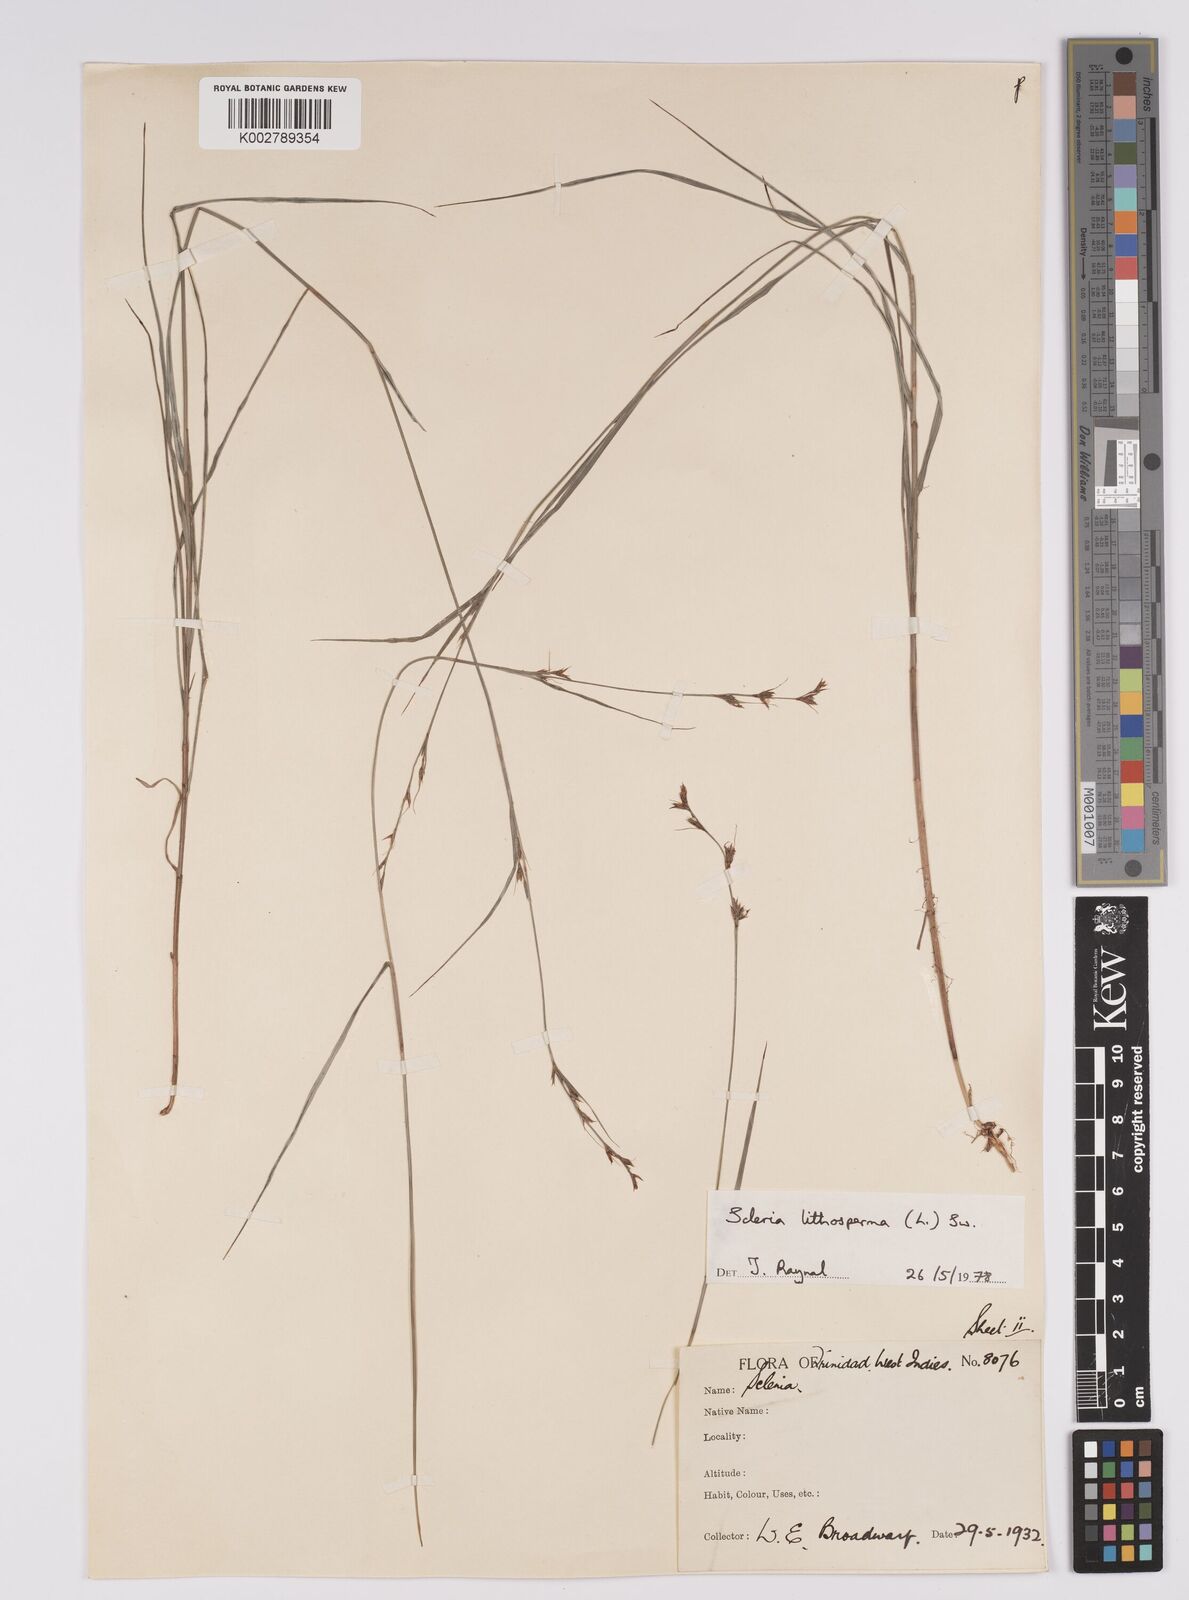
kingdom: Plantae
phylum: Tracheophyta
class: Liliopsida
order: Poales
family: Cyperaceae
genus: Scleria
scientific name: Scleria lithosperma
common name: Florida keys nut-rush
